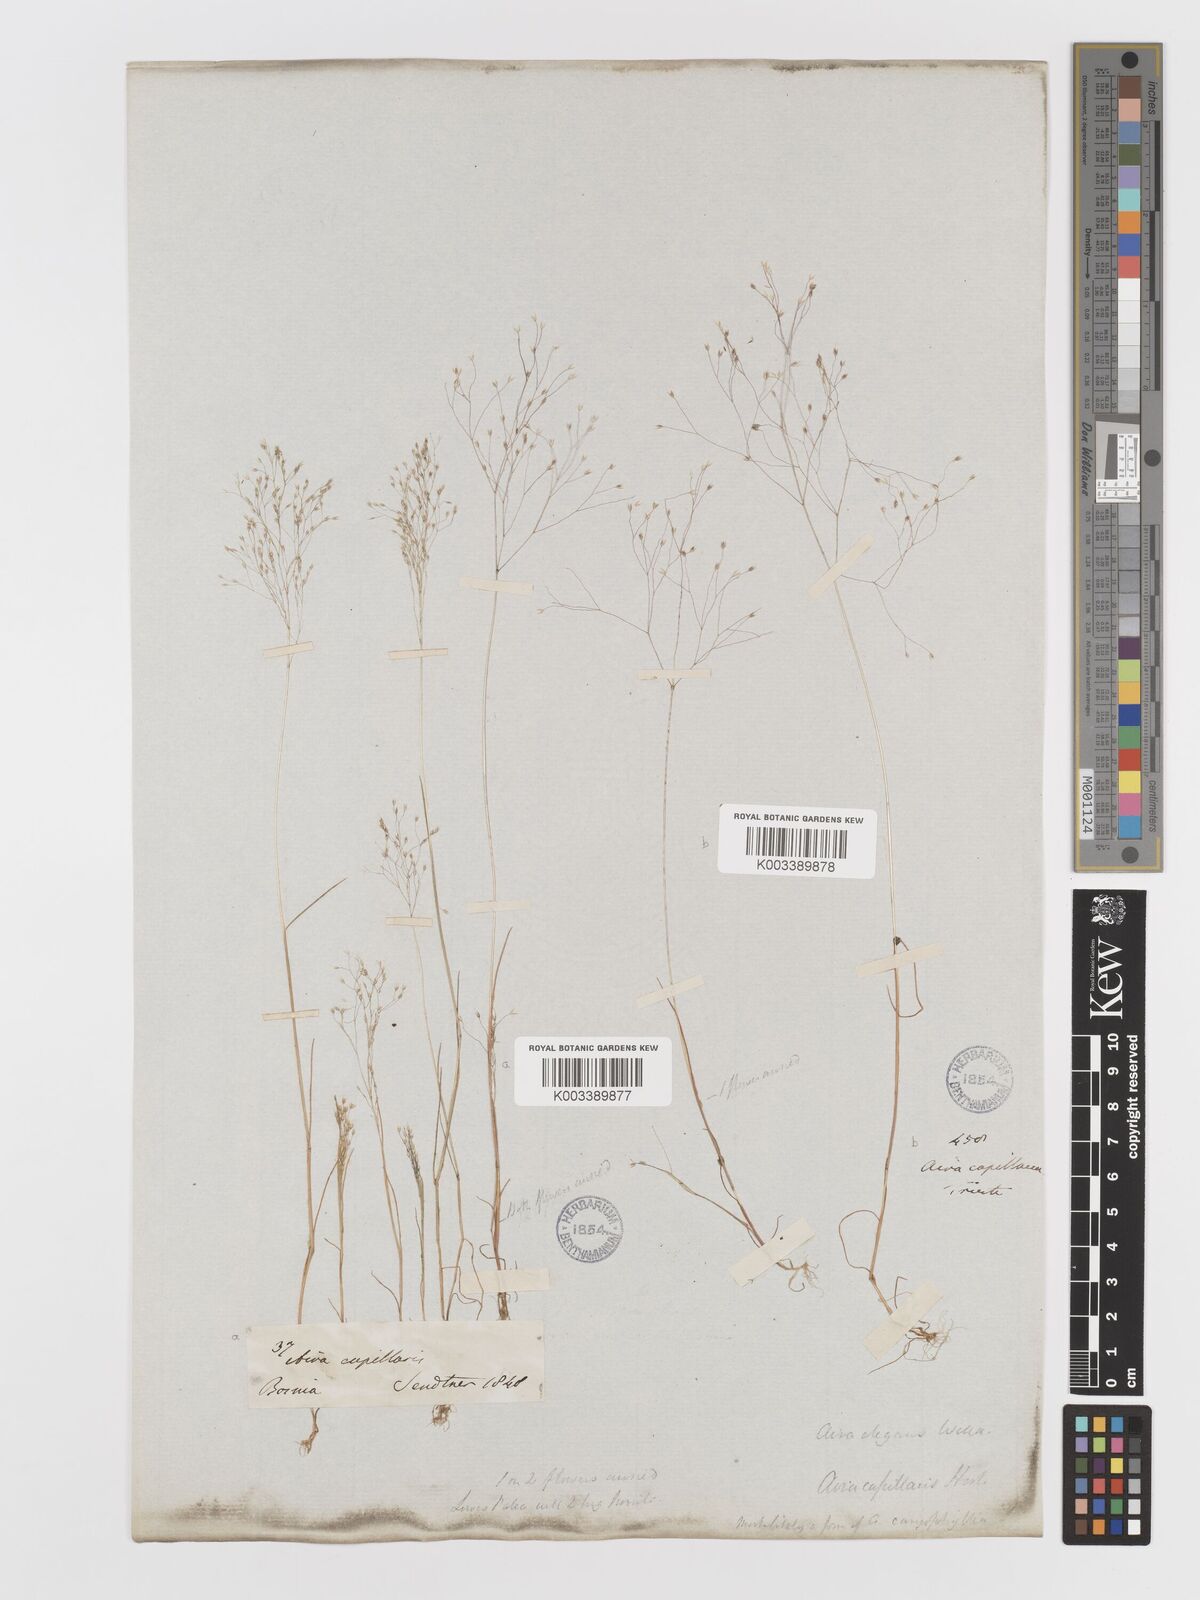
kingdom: Plantae
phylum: Tracheophyta
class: Liliopsida
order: Poales
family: Poaceae
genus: Aira
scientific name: Aira elegans
